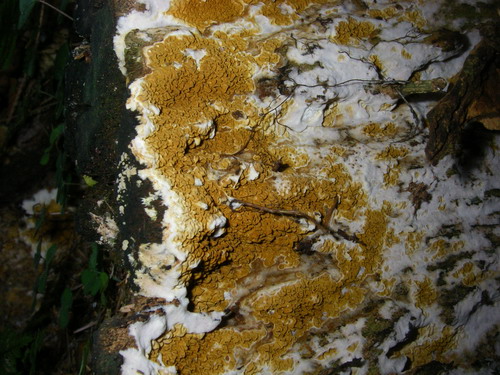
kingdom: Fungi
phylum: Basidiomycota
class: Agaricomycetes
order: Boletales
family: Serpulaceae
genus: Serpula
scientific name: Serpula himantioides
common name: tyndkødet hussvamp
